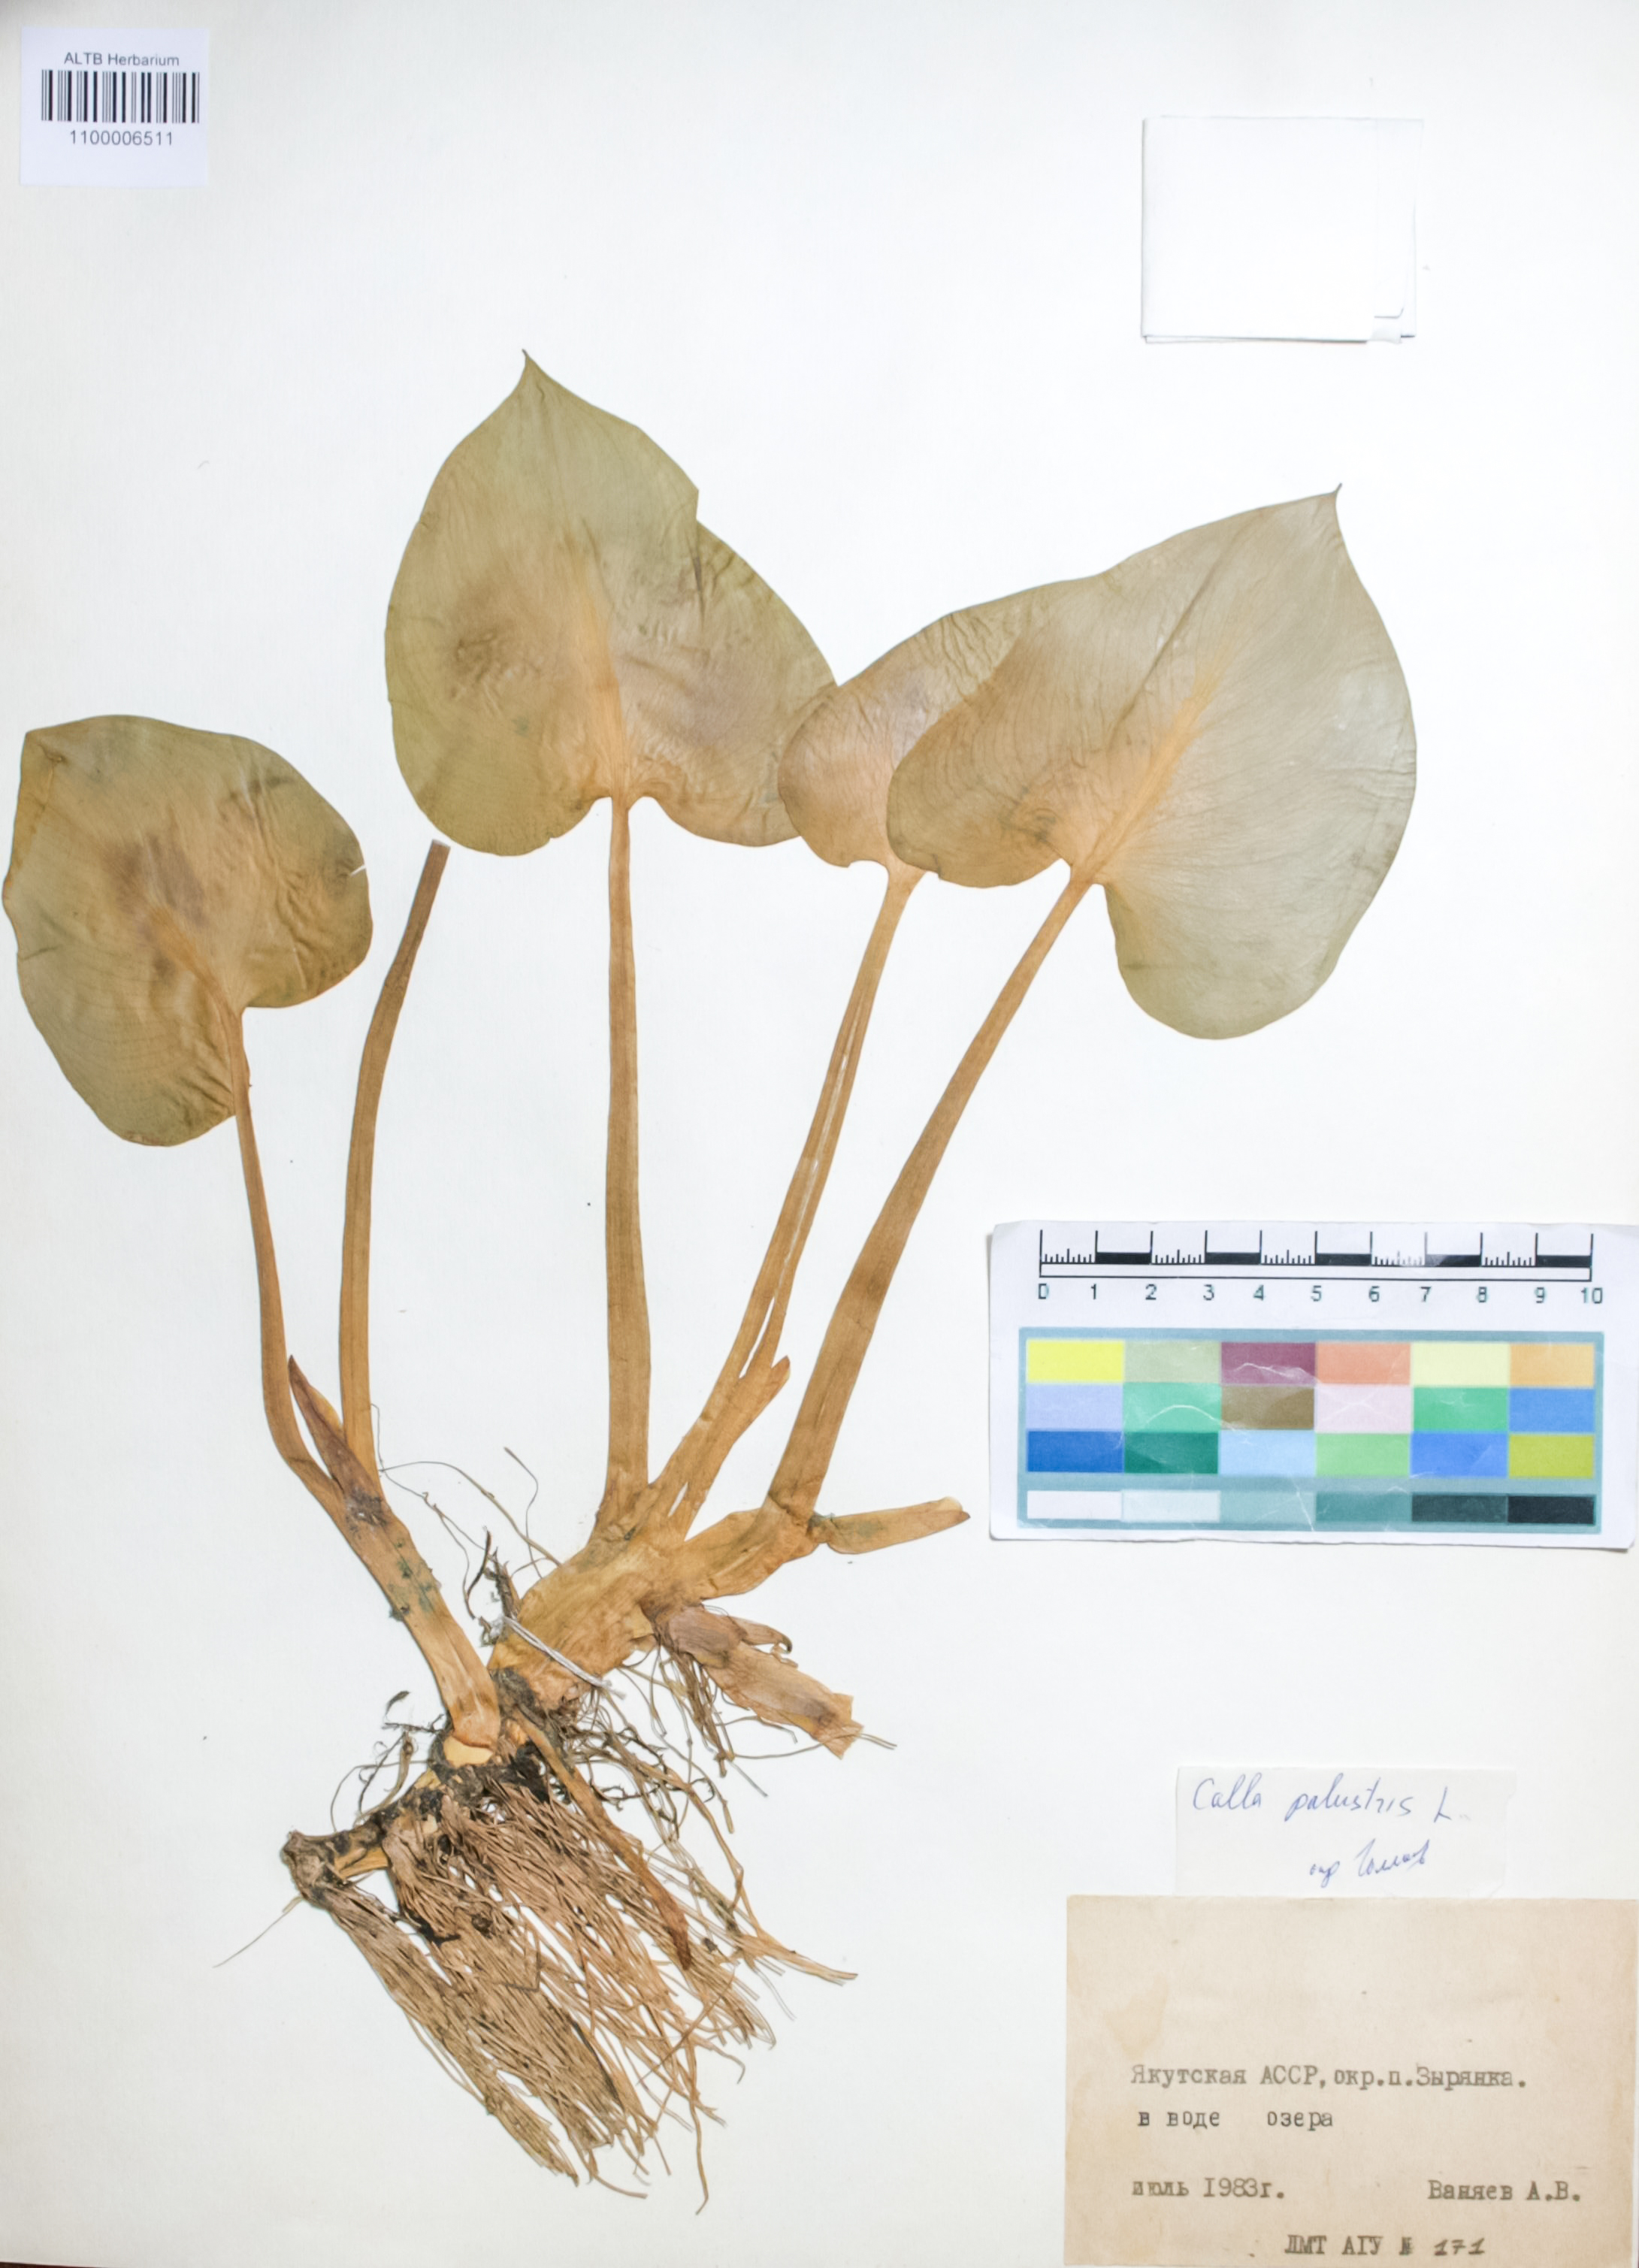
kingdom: Plantae
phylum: Tracheophyta
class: Liliopsida
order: Alismatales
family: Araceae
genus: Calla
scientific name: Calla palustris
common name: Bog arum
